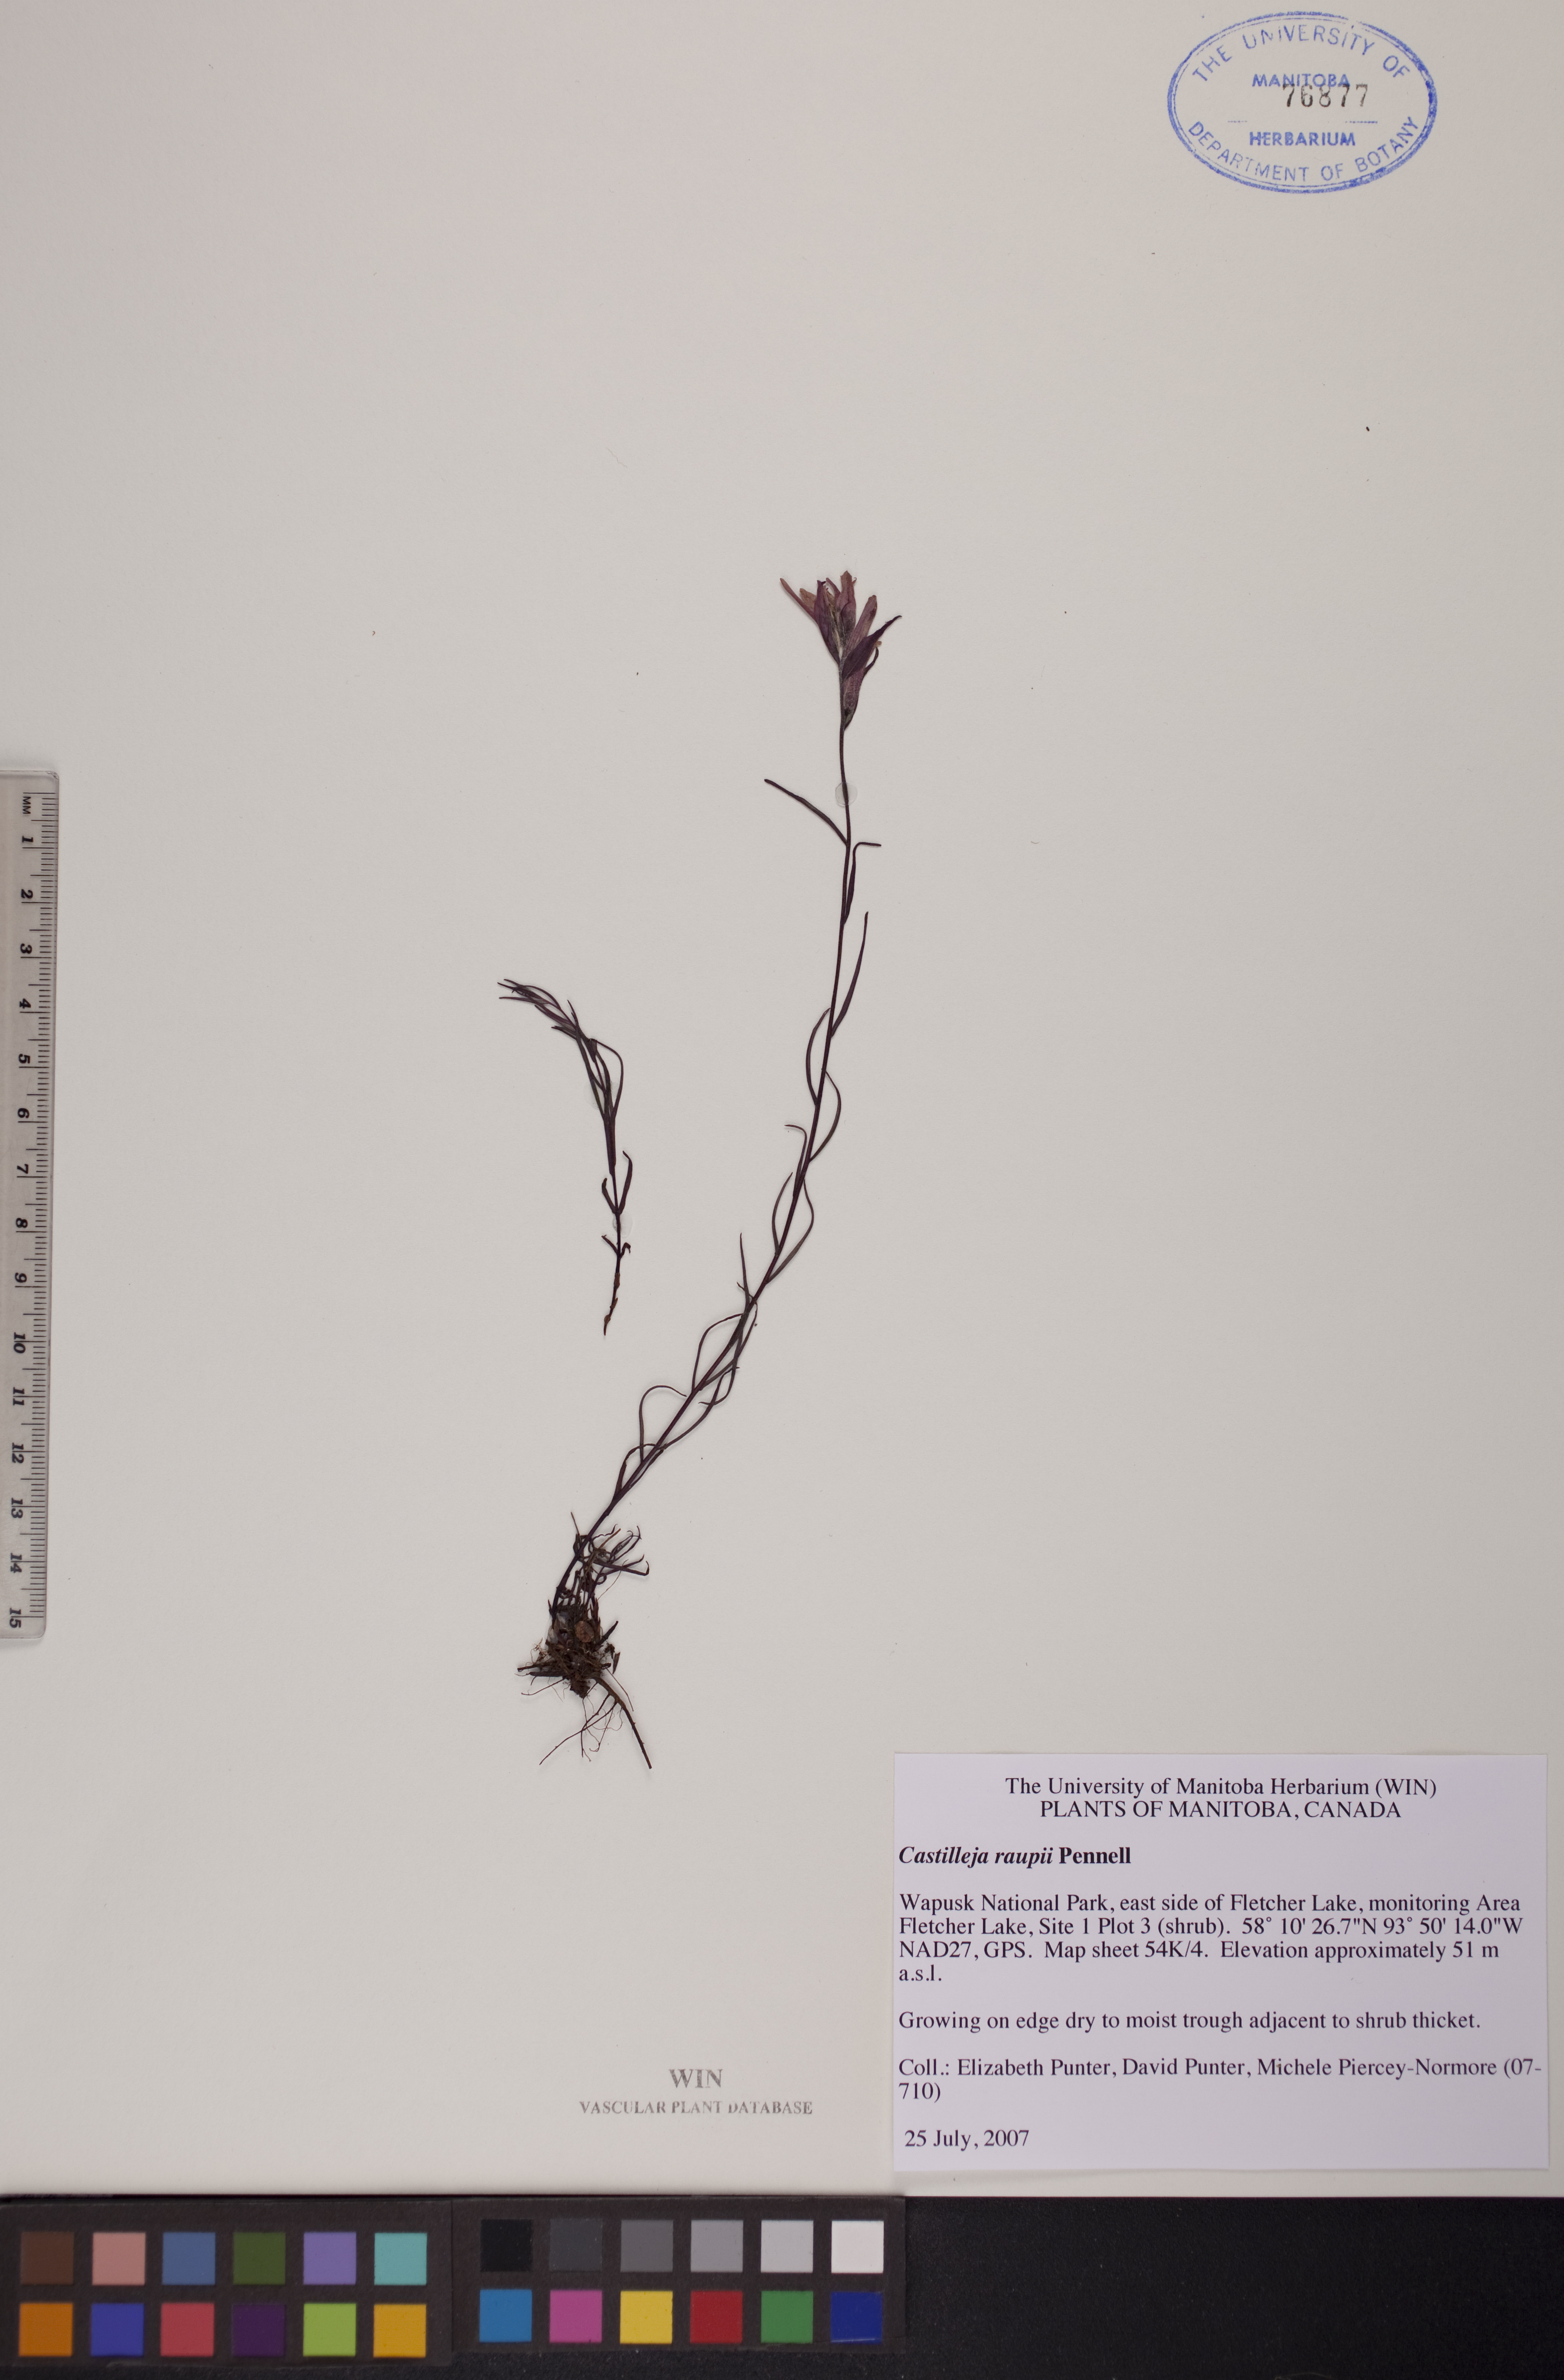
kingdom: Plantae
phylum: Tracheophyta
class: Magnoliopsida
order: Lamiales
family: Orobanchaceae
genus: Castilleja
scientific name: Castilleja raupii
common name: Raup's paintbrush
